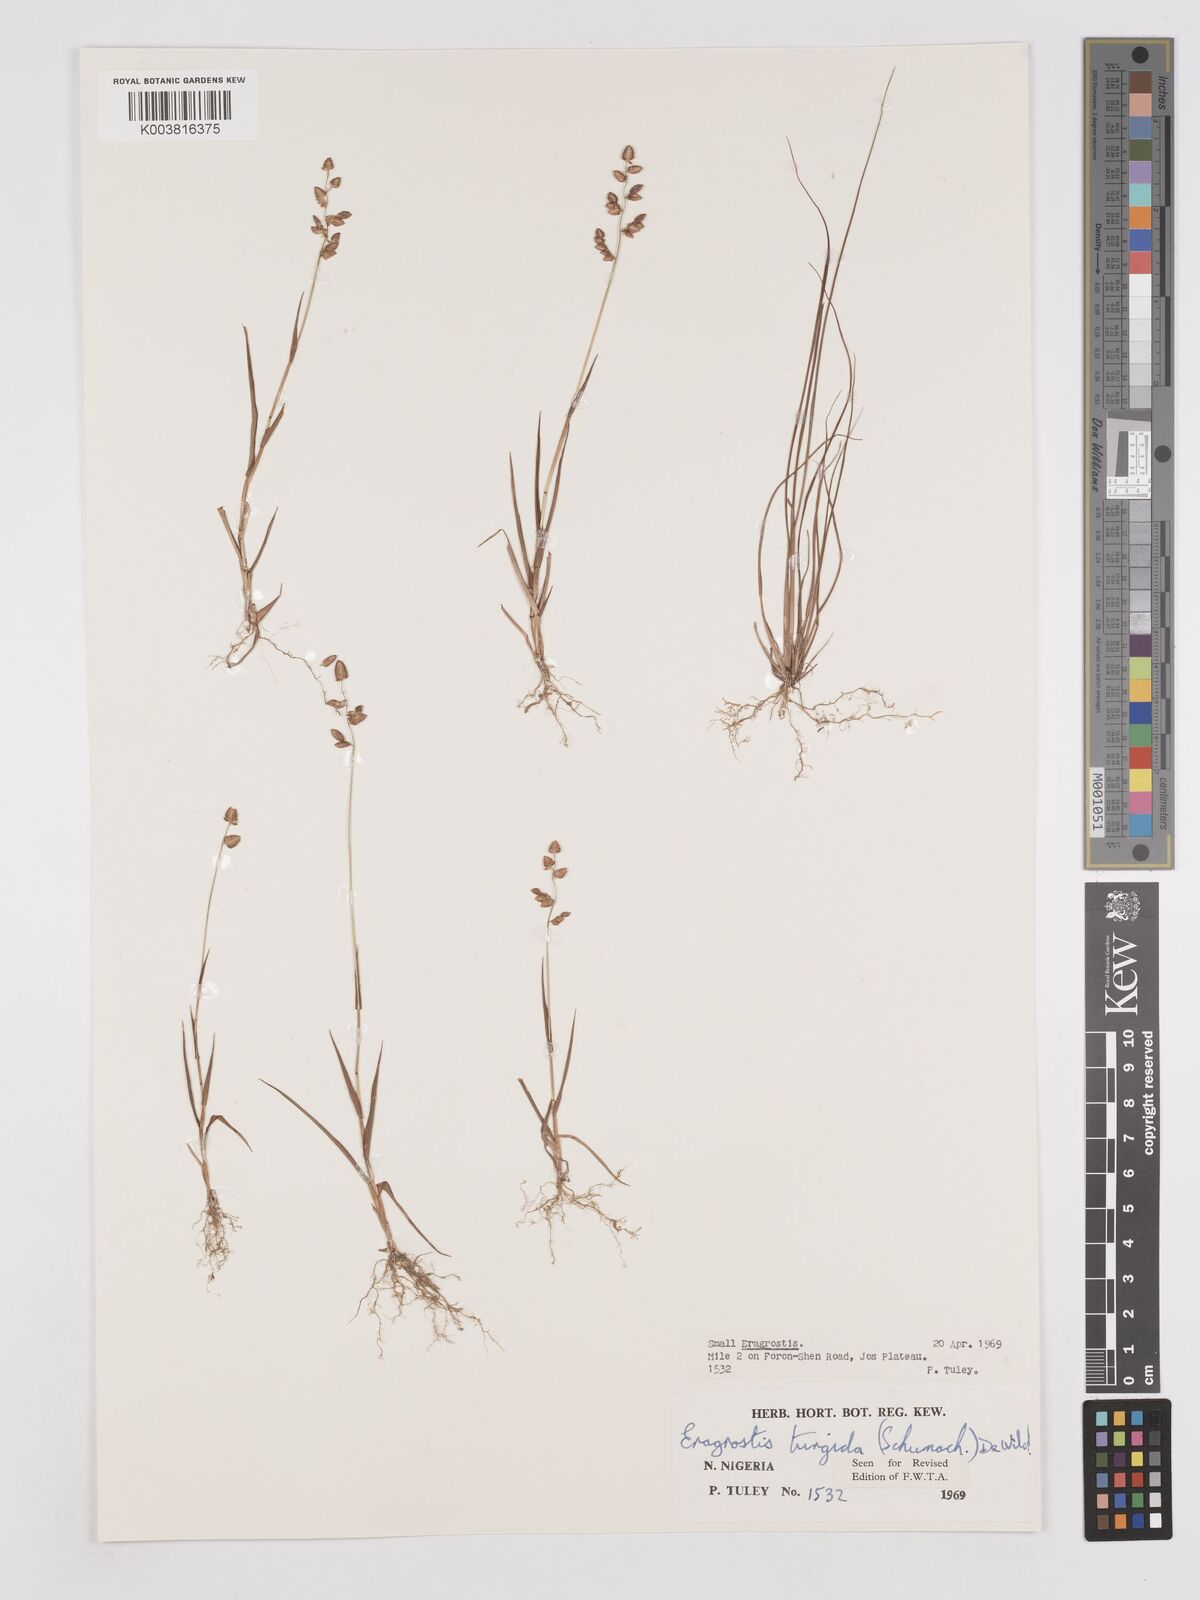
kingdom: Plantae
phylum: Tracheophyta
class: Liliopsida
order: Poales
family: Poaceae
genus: Eragrostis
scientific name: Eragrostis turgida
